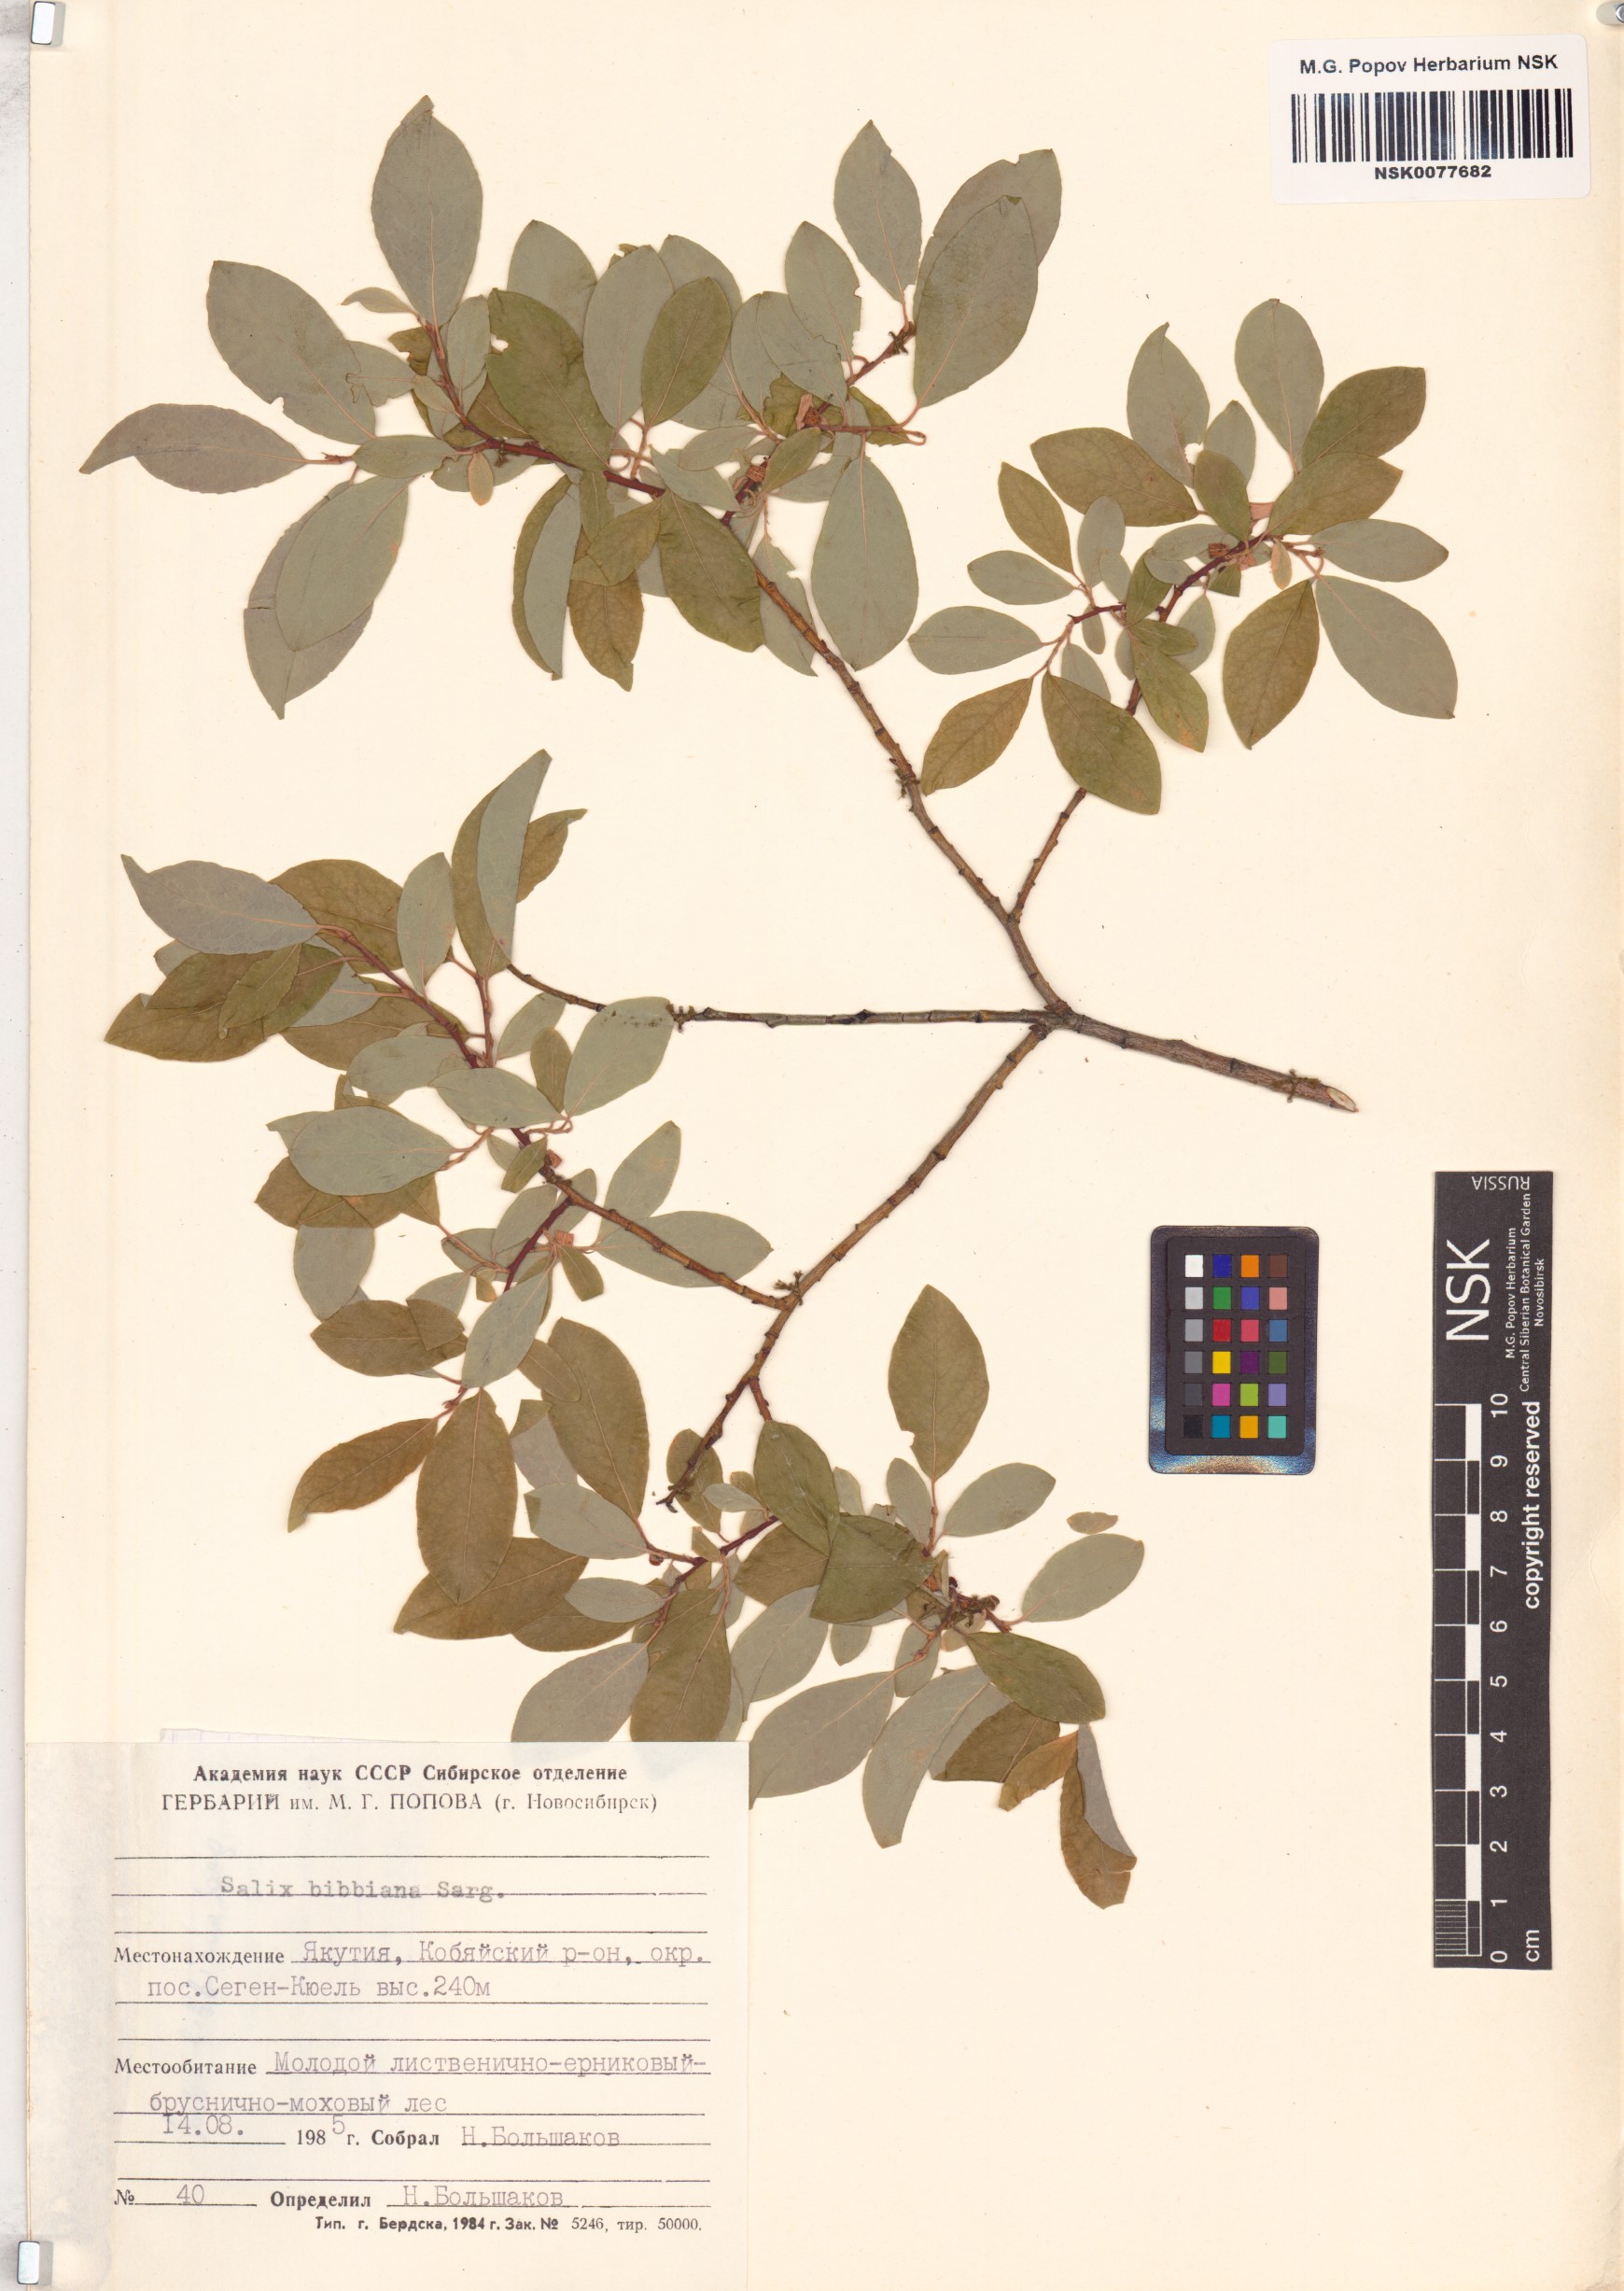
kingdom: Plantae
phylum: Tracheophyta
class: Magnoliopsida
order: Malpighiales
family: Salicaceae
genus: Salix
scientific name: Salix bebbiana
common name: Bebb's willow
